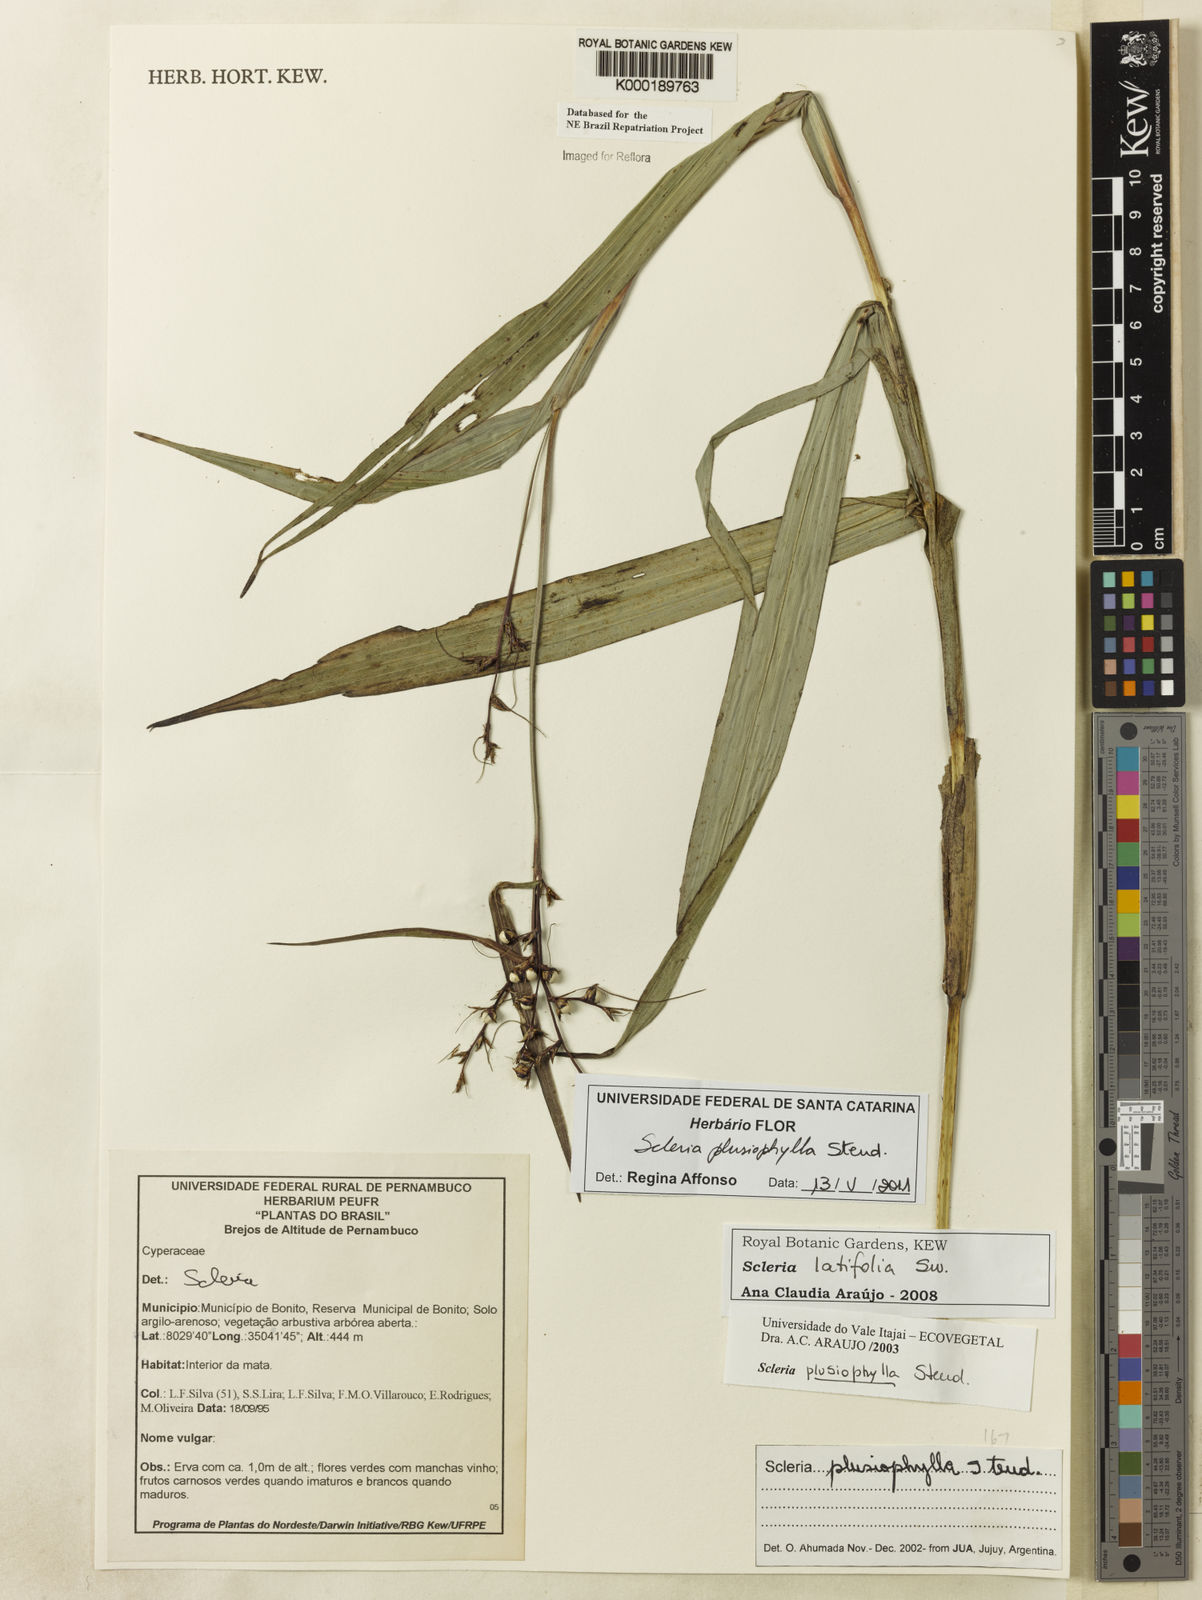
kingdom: Plantae
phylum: Tracheophyta
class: Liliopsida
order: Poales
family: Cyperaceae
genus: Scleria
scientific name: Scleria plusiophylla
